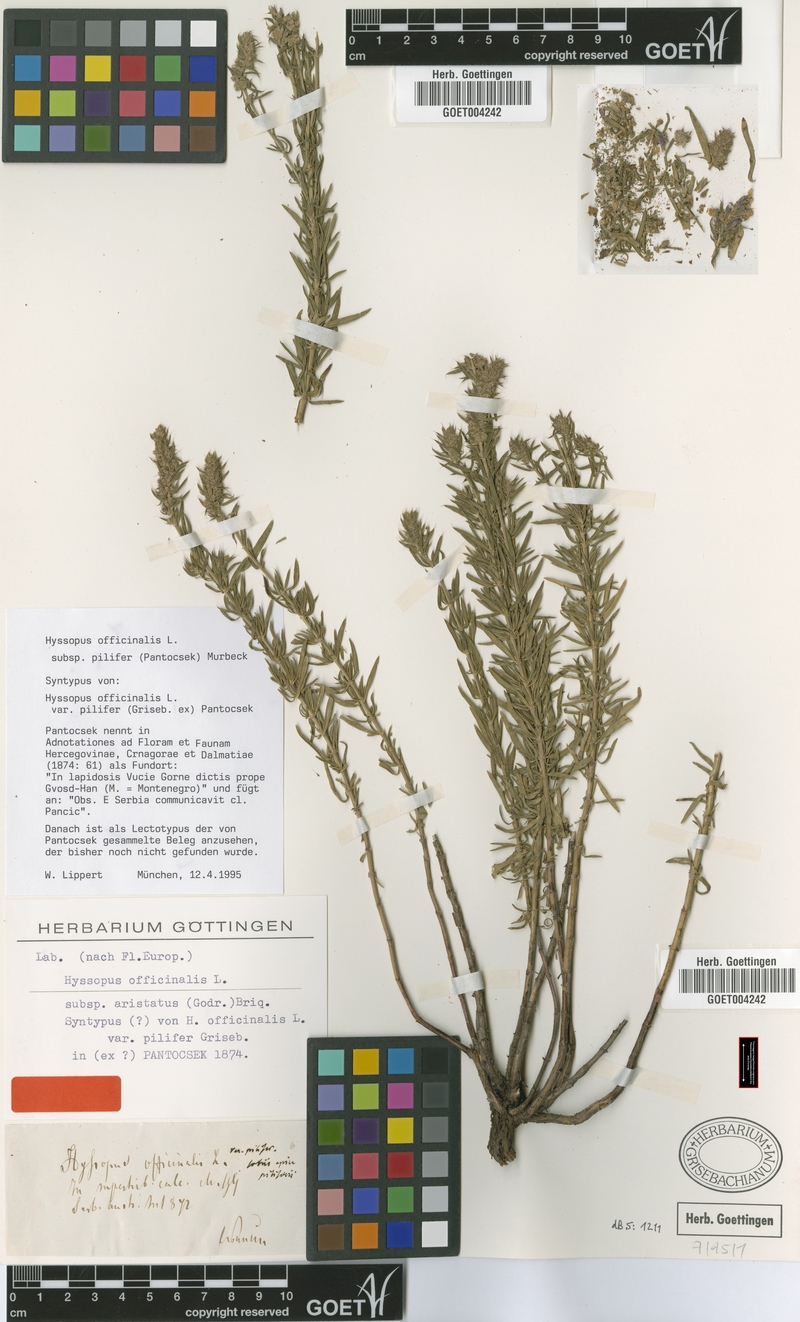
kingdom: Plantae
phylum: Tracheophyta
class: Magnoliopsida
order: Lamiales
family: Lamiaceae
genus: Hyssopus
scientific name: Hyssopus officinalis
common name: Hyssop
